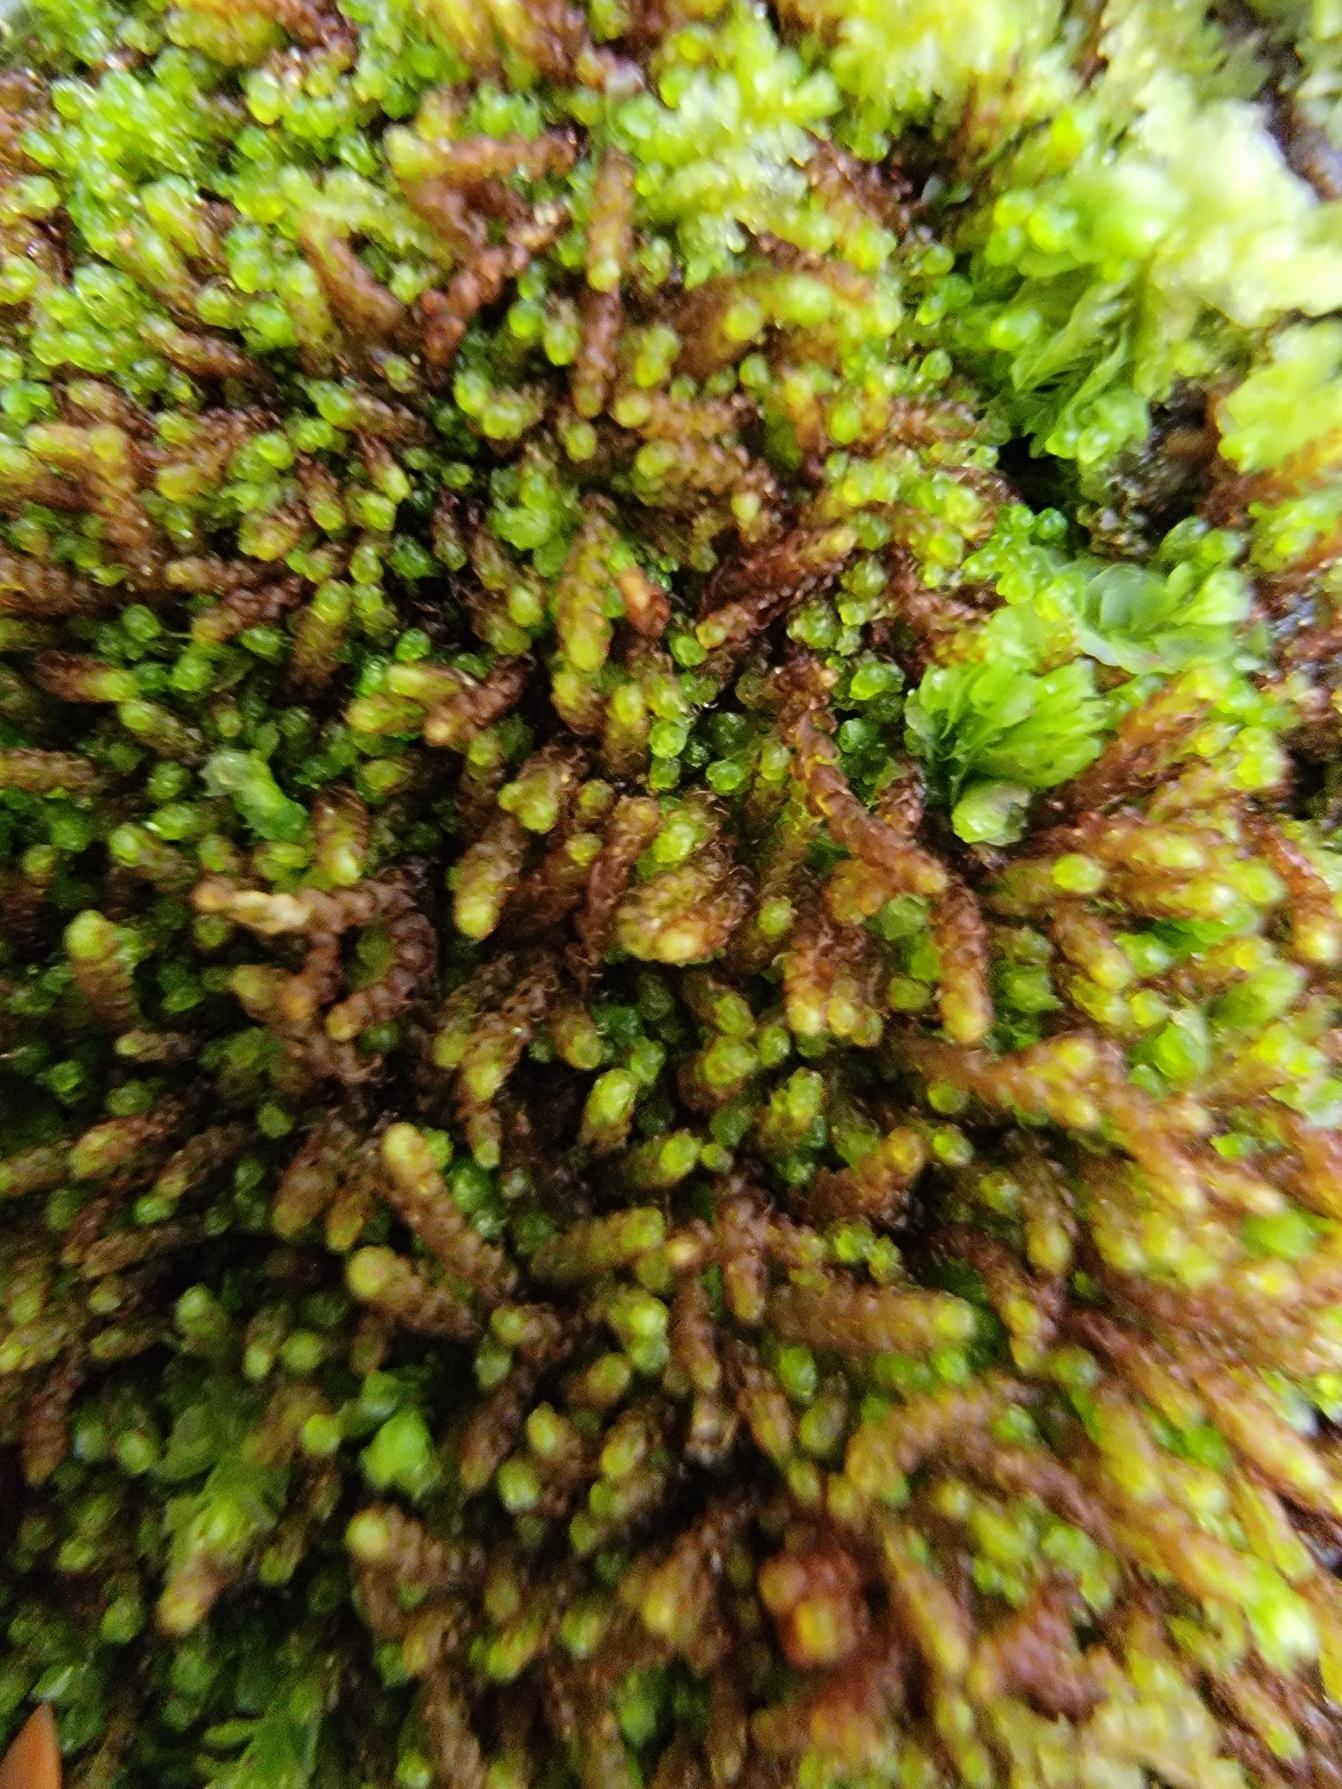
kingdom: Plantae
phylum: Marchantiophyta
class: Jungermanniopsida
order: Jungermanniales
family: Cephaloziaceae
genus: Nowellia
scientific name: Nowellia curvifolia
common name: Krumbladet stødmos
